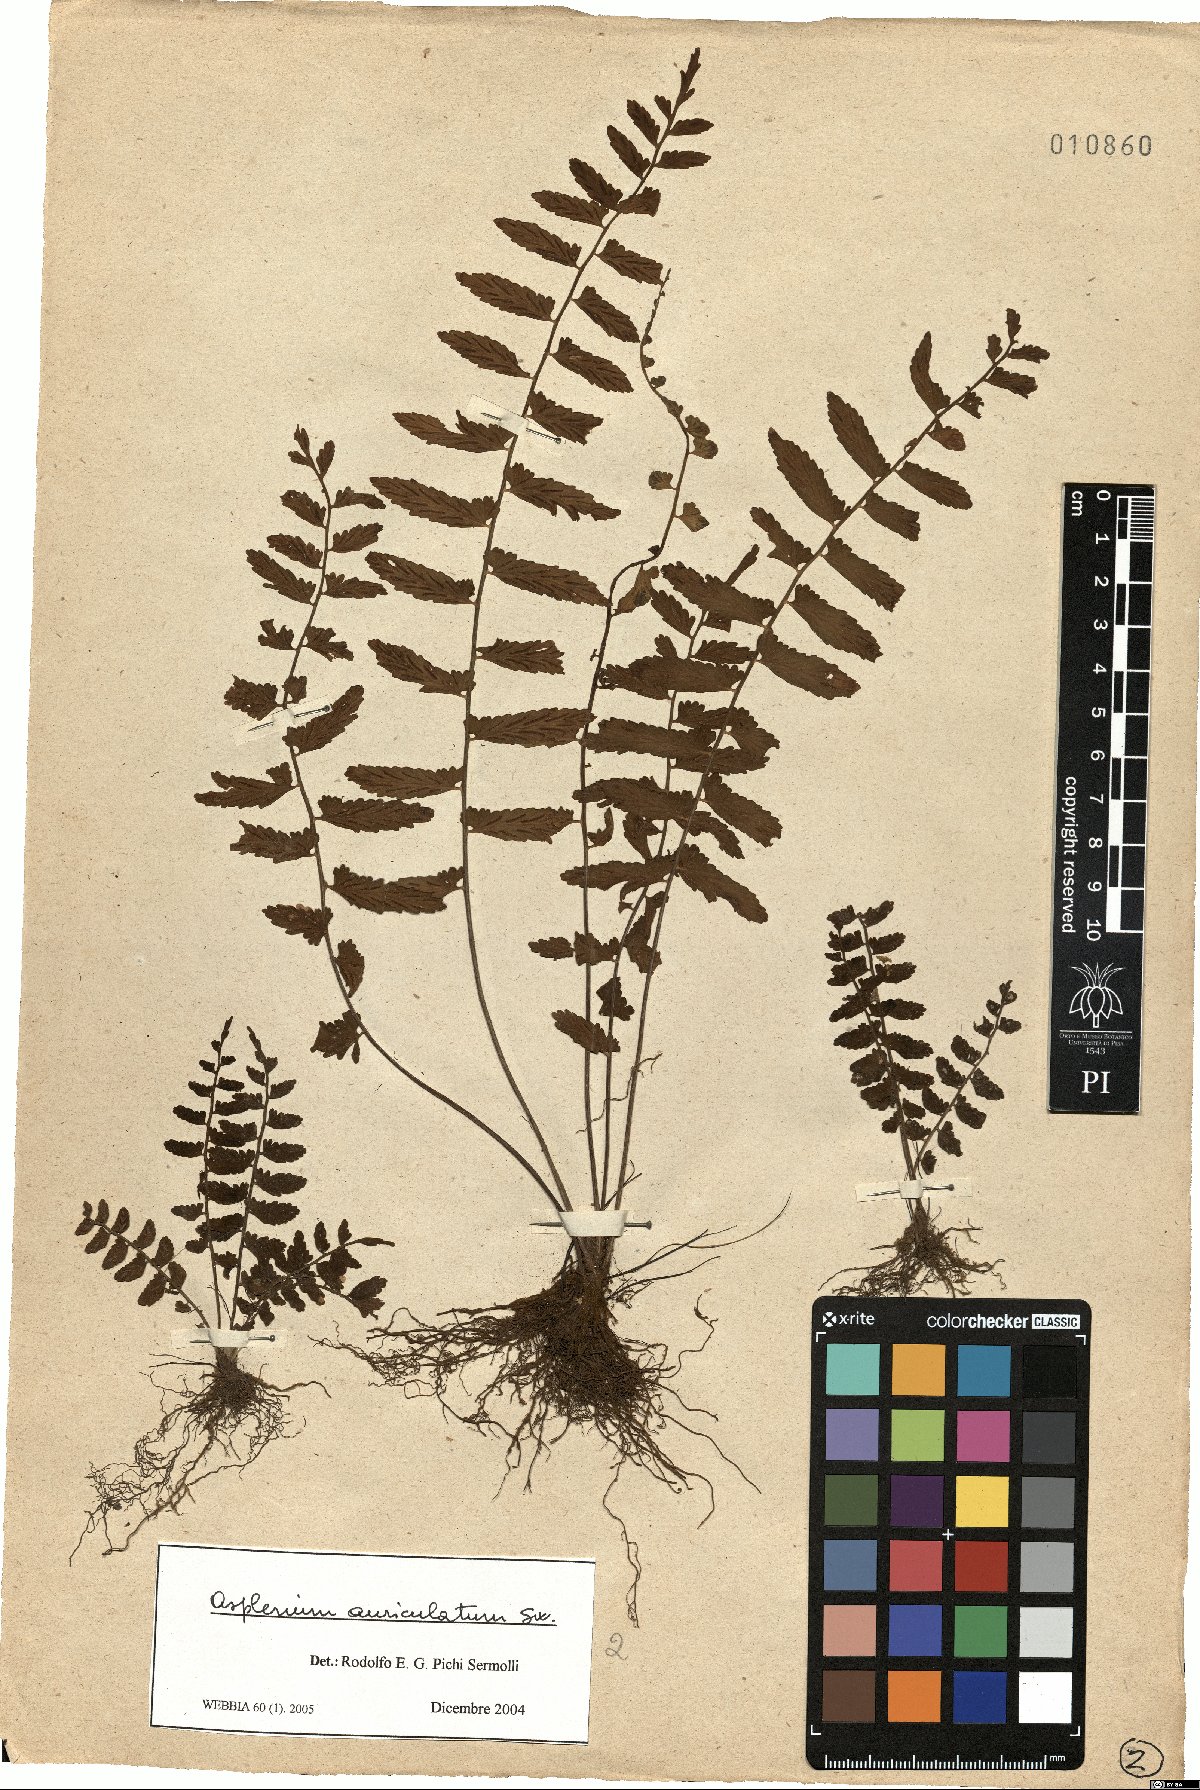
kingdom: Plantae
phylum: Tracheophyta
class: Polypodiopsida
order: Polypodiales
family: Aspleniaceae
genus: Asplenium
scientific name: Asplenium auriculatum
